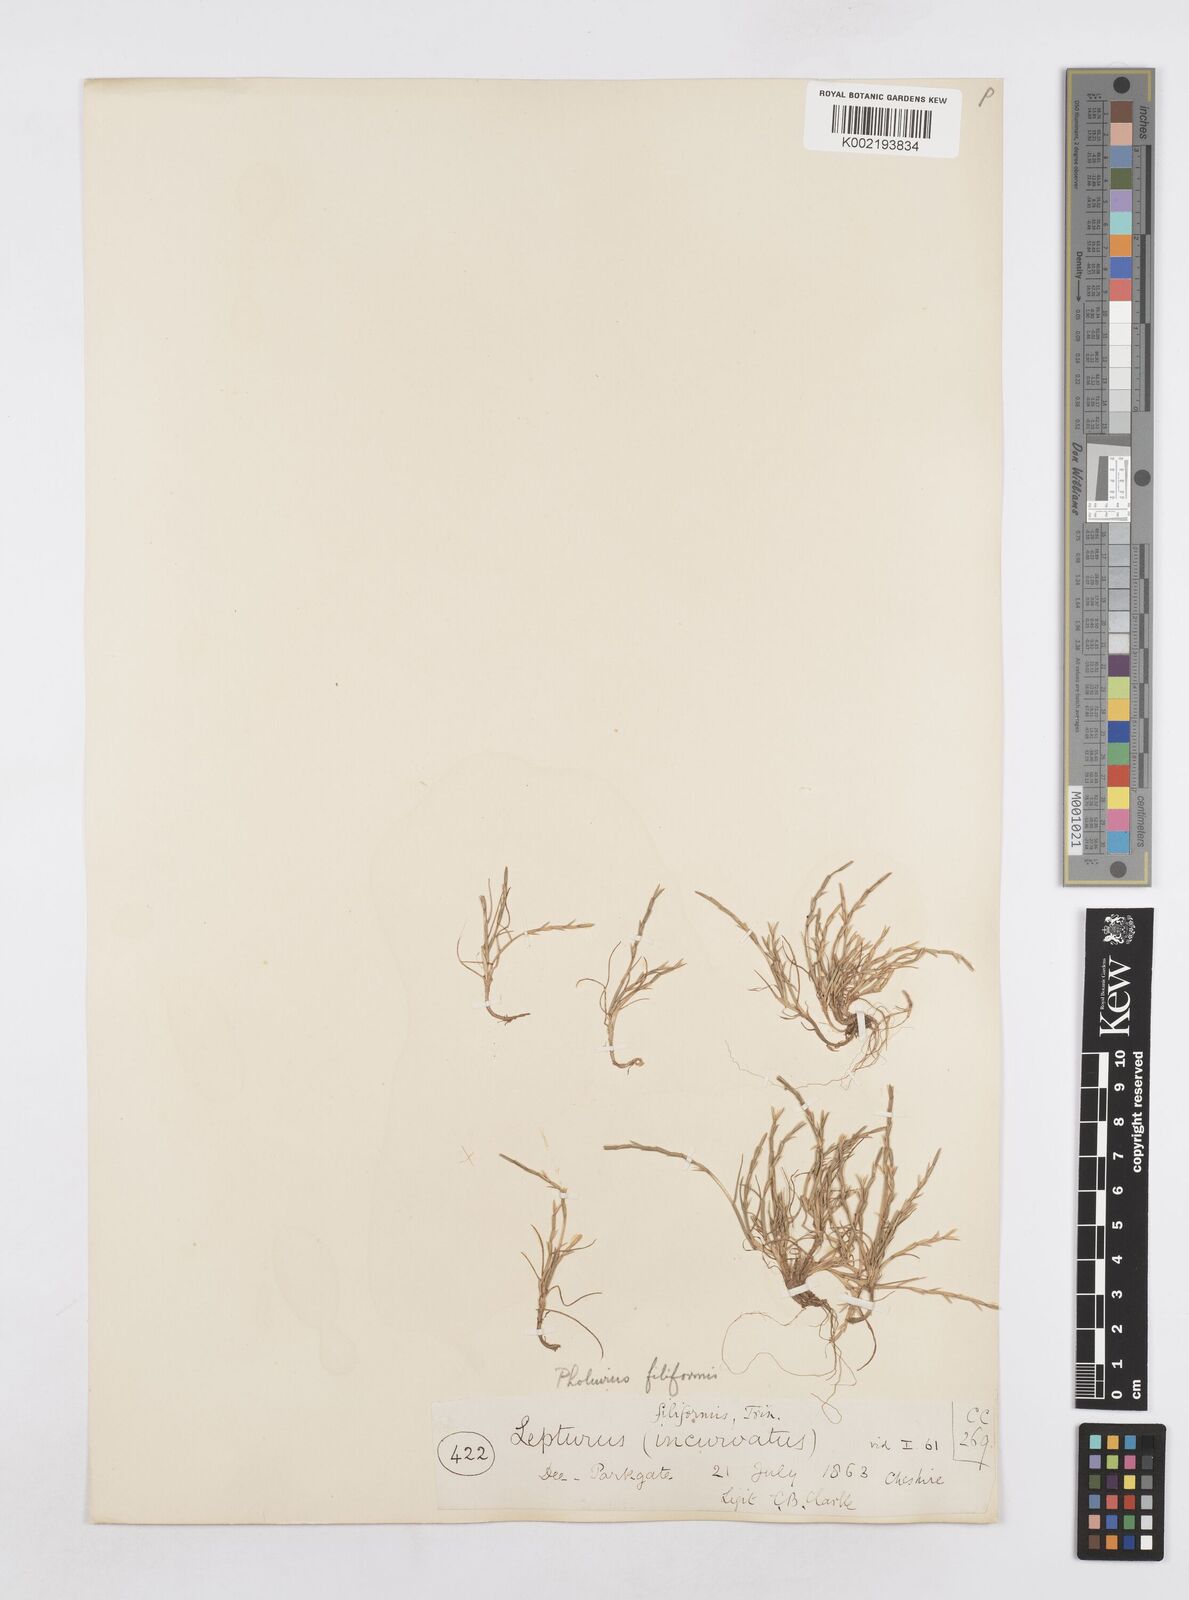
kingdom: Plantae
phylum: Tracheophyta
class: Liliopsida
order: Poales
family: Poaceae
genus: Parapholis
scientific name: Parapholis strigosa
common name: Hard-grass
